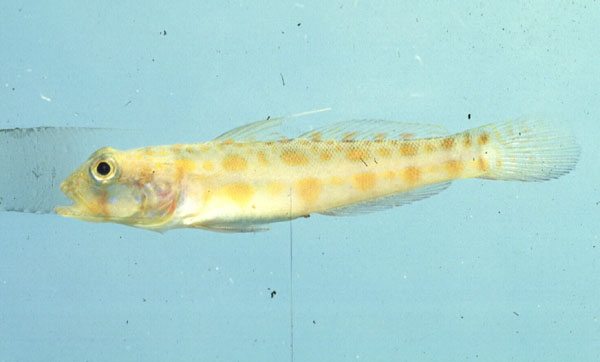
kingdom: Animalia
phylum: Chordata
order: Perciformes
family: Gobiidae
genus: Valenciennea
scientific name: Valenciennea puellaris
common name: Orange-dashed goby
